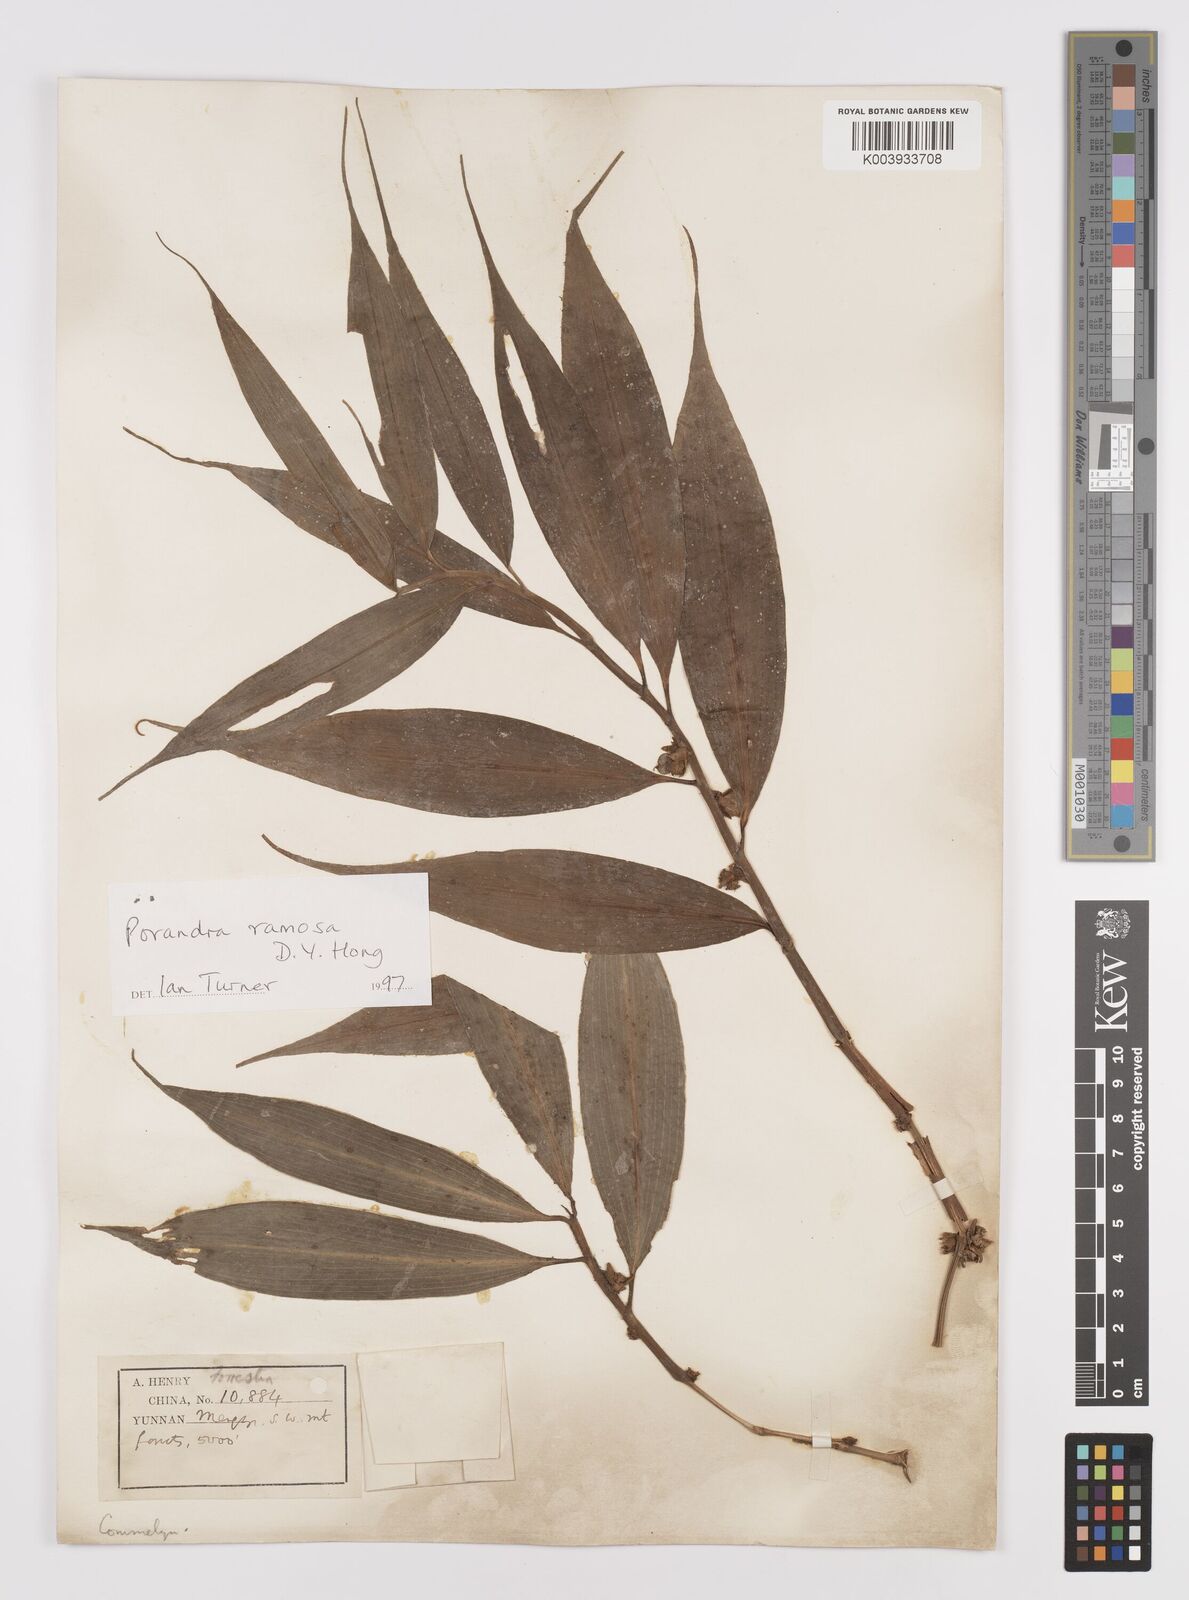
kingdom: Plantae
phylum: Tracheophyta
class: Liliopsida
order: Commelinales
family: Commelinaceae
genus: Porandra
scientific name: Porandra ramosa
